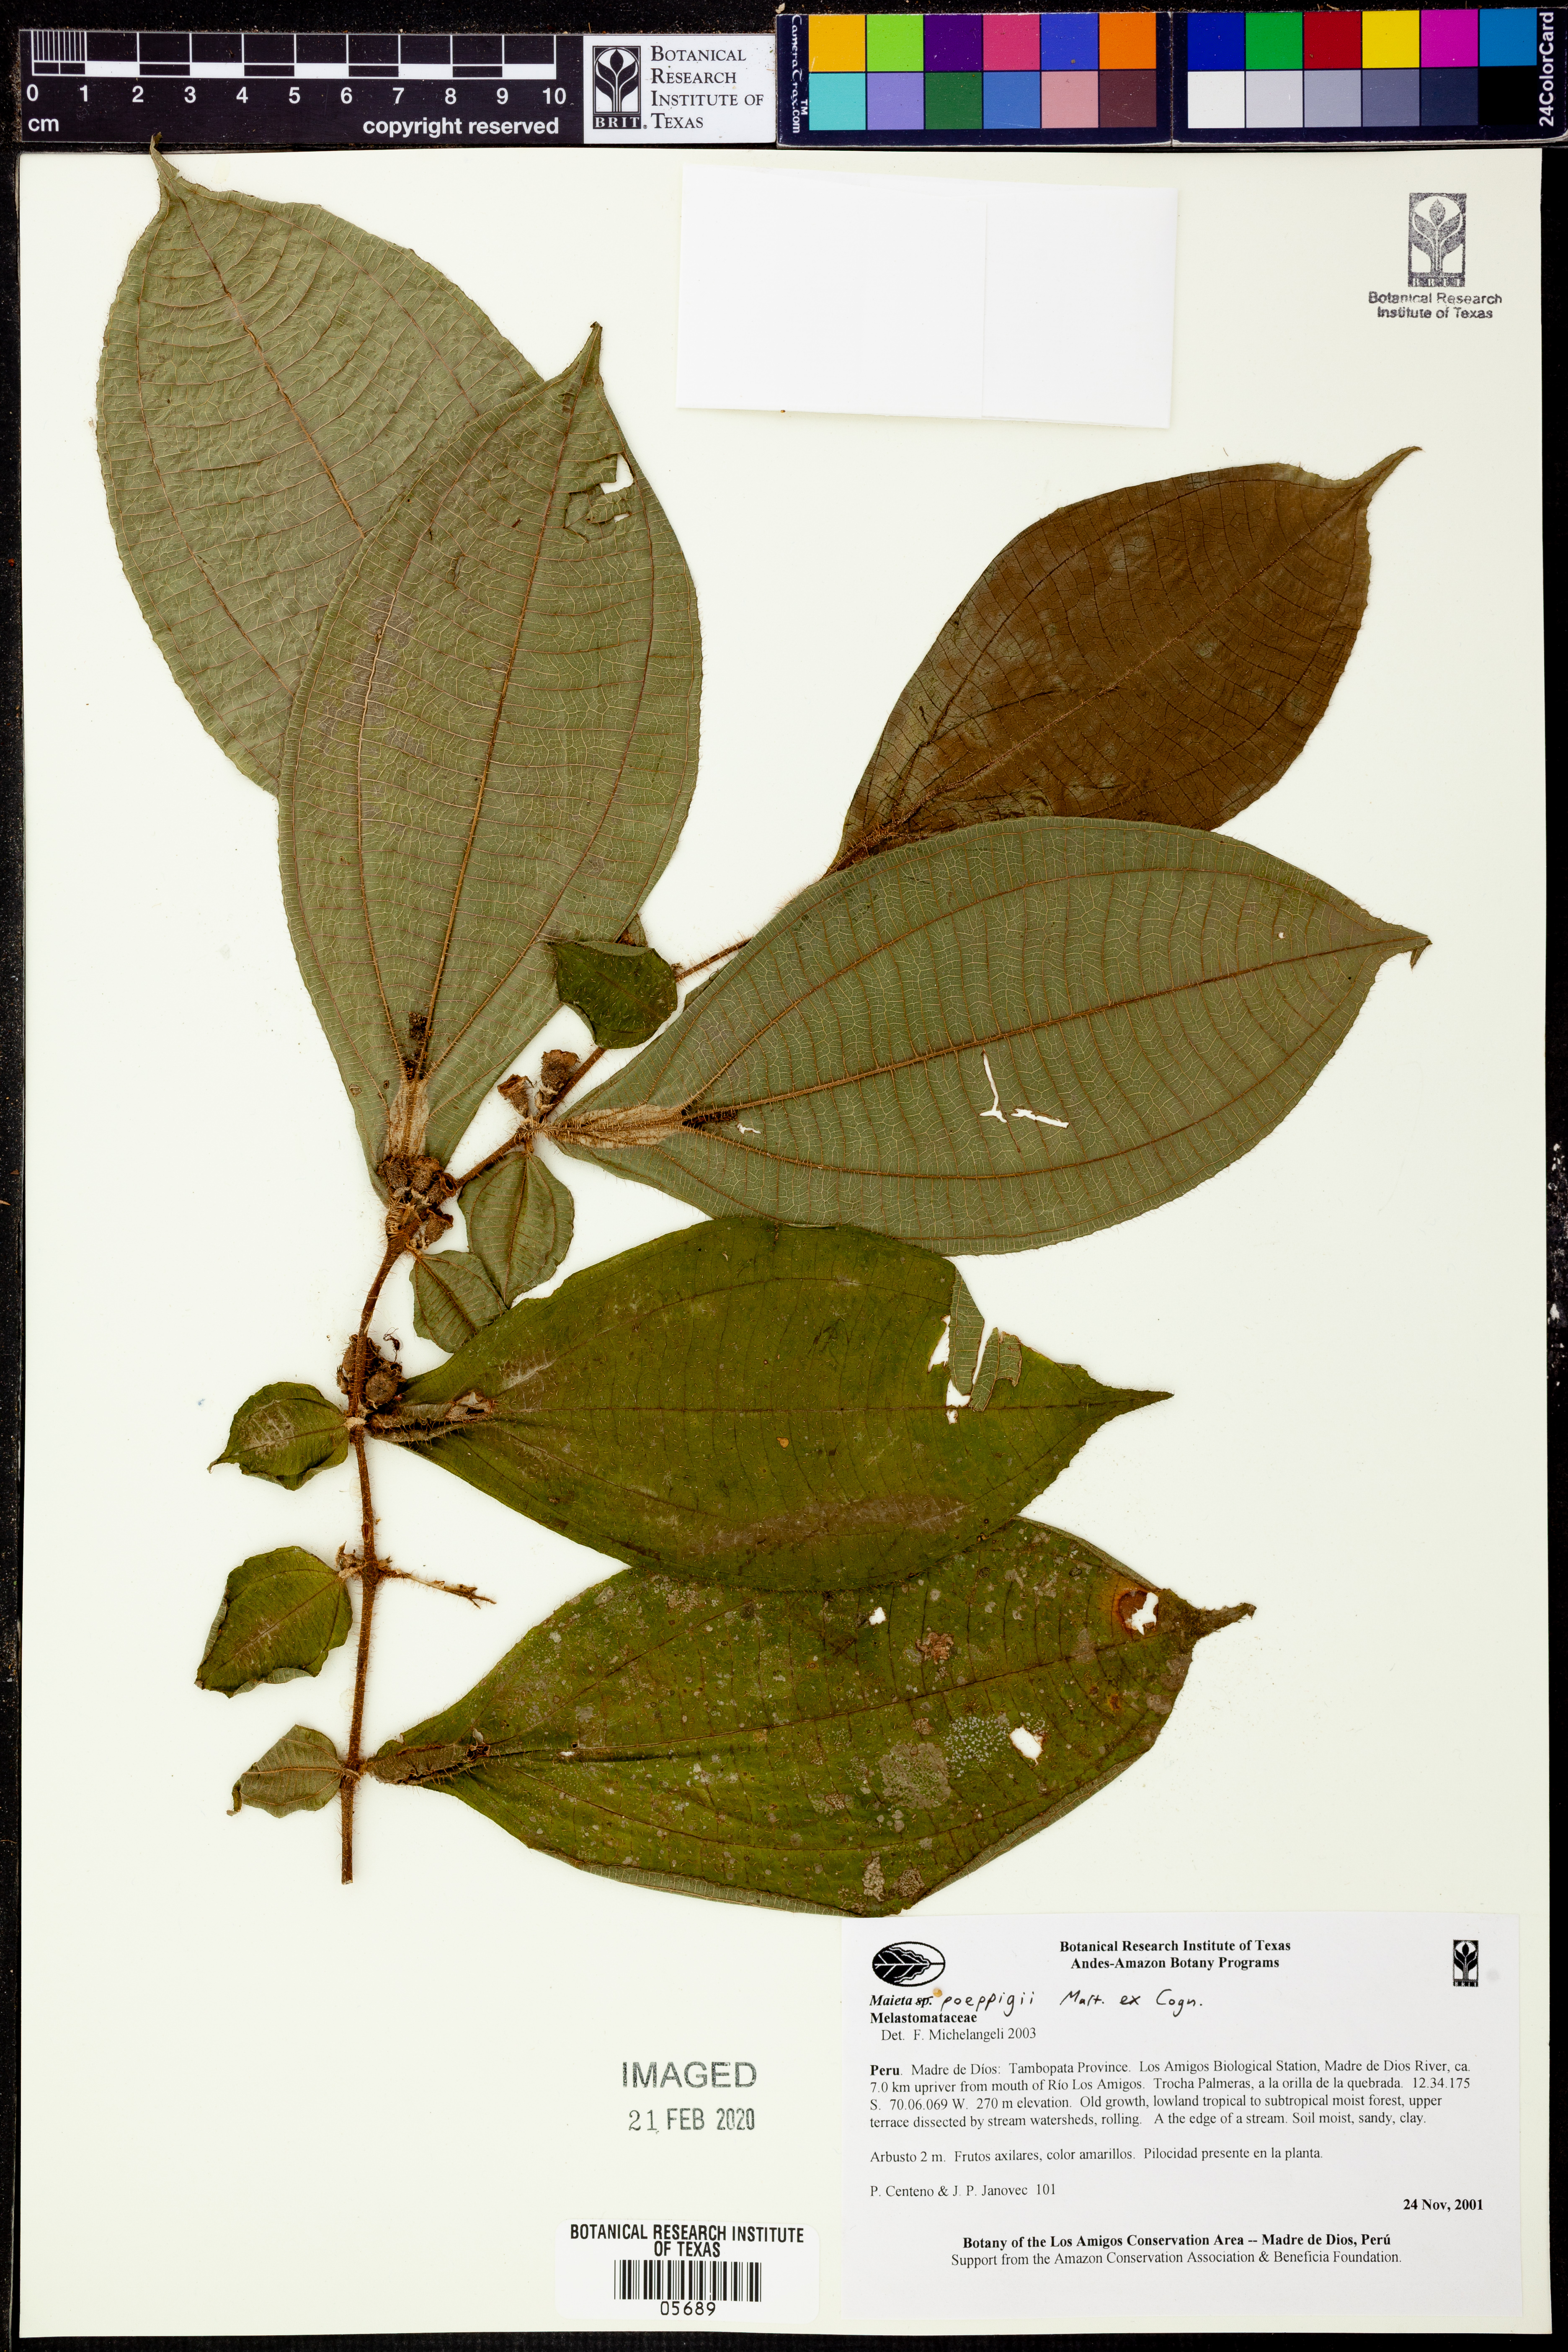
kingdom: Plantae
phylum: Tracheophyta
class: Magnoliopsida
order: Myrtales
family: Melastomataceae
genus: Miconia
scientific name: Miconia alternidomatia
